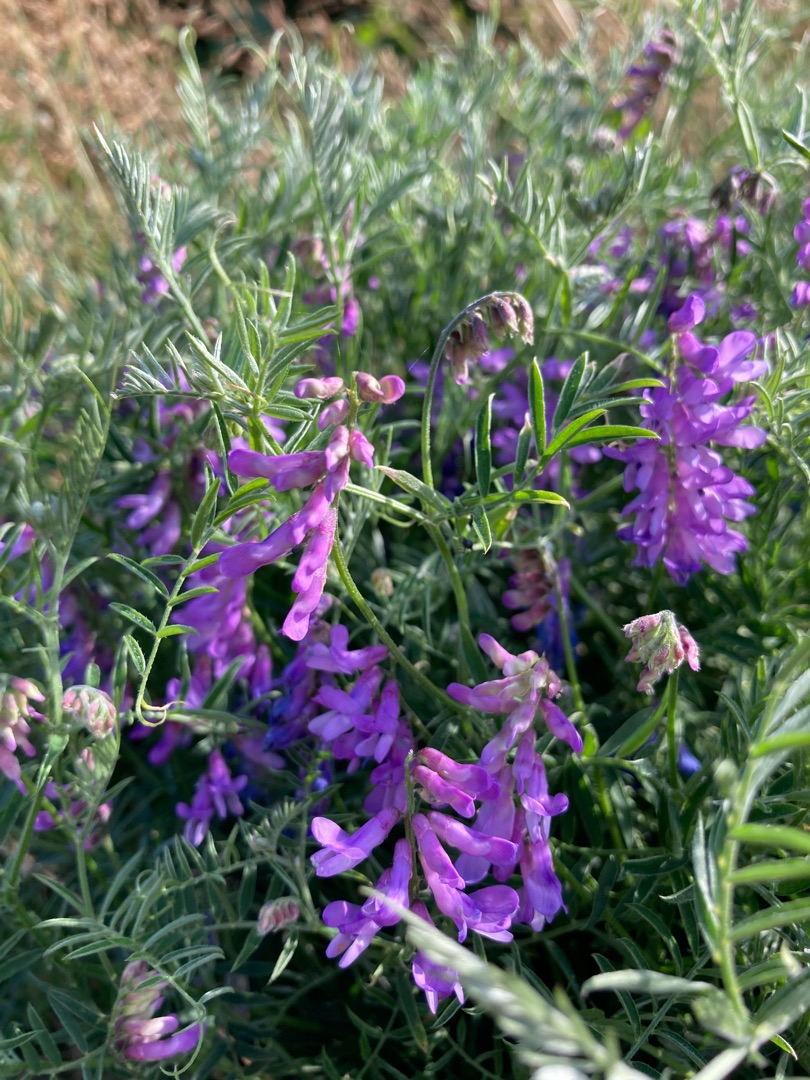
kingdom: Plantae
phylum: Tracheophyta
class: Magnoliopsida
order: Fabales
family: Fabaceae
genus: Vicia
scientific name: Vicia cracca
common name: Muse-vikke
